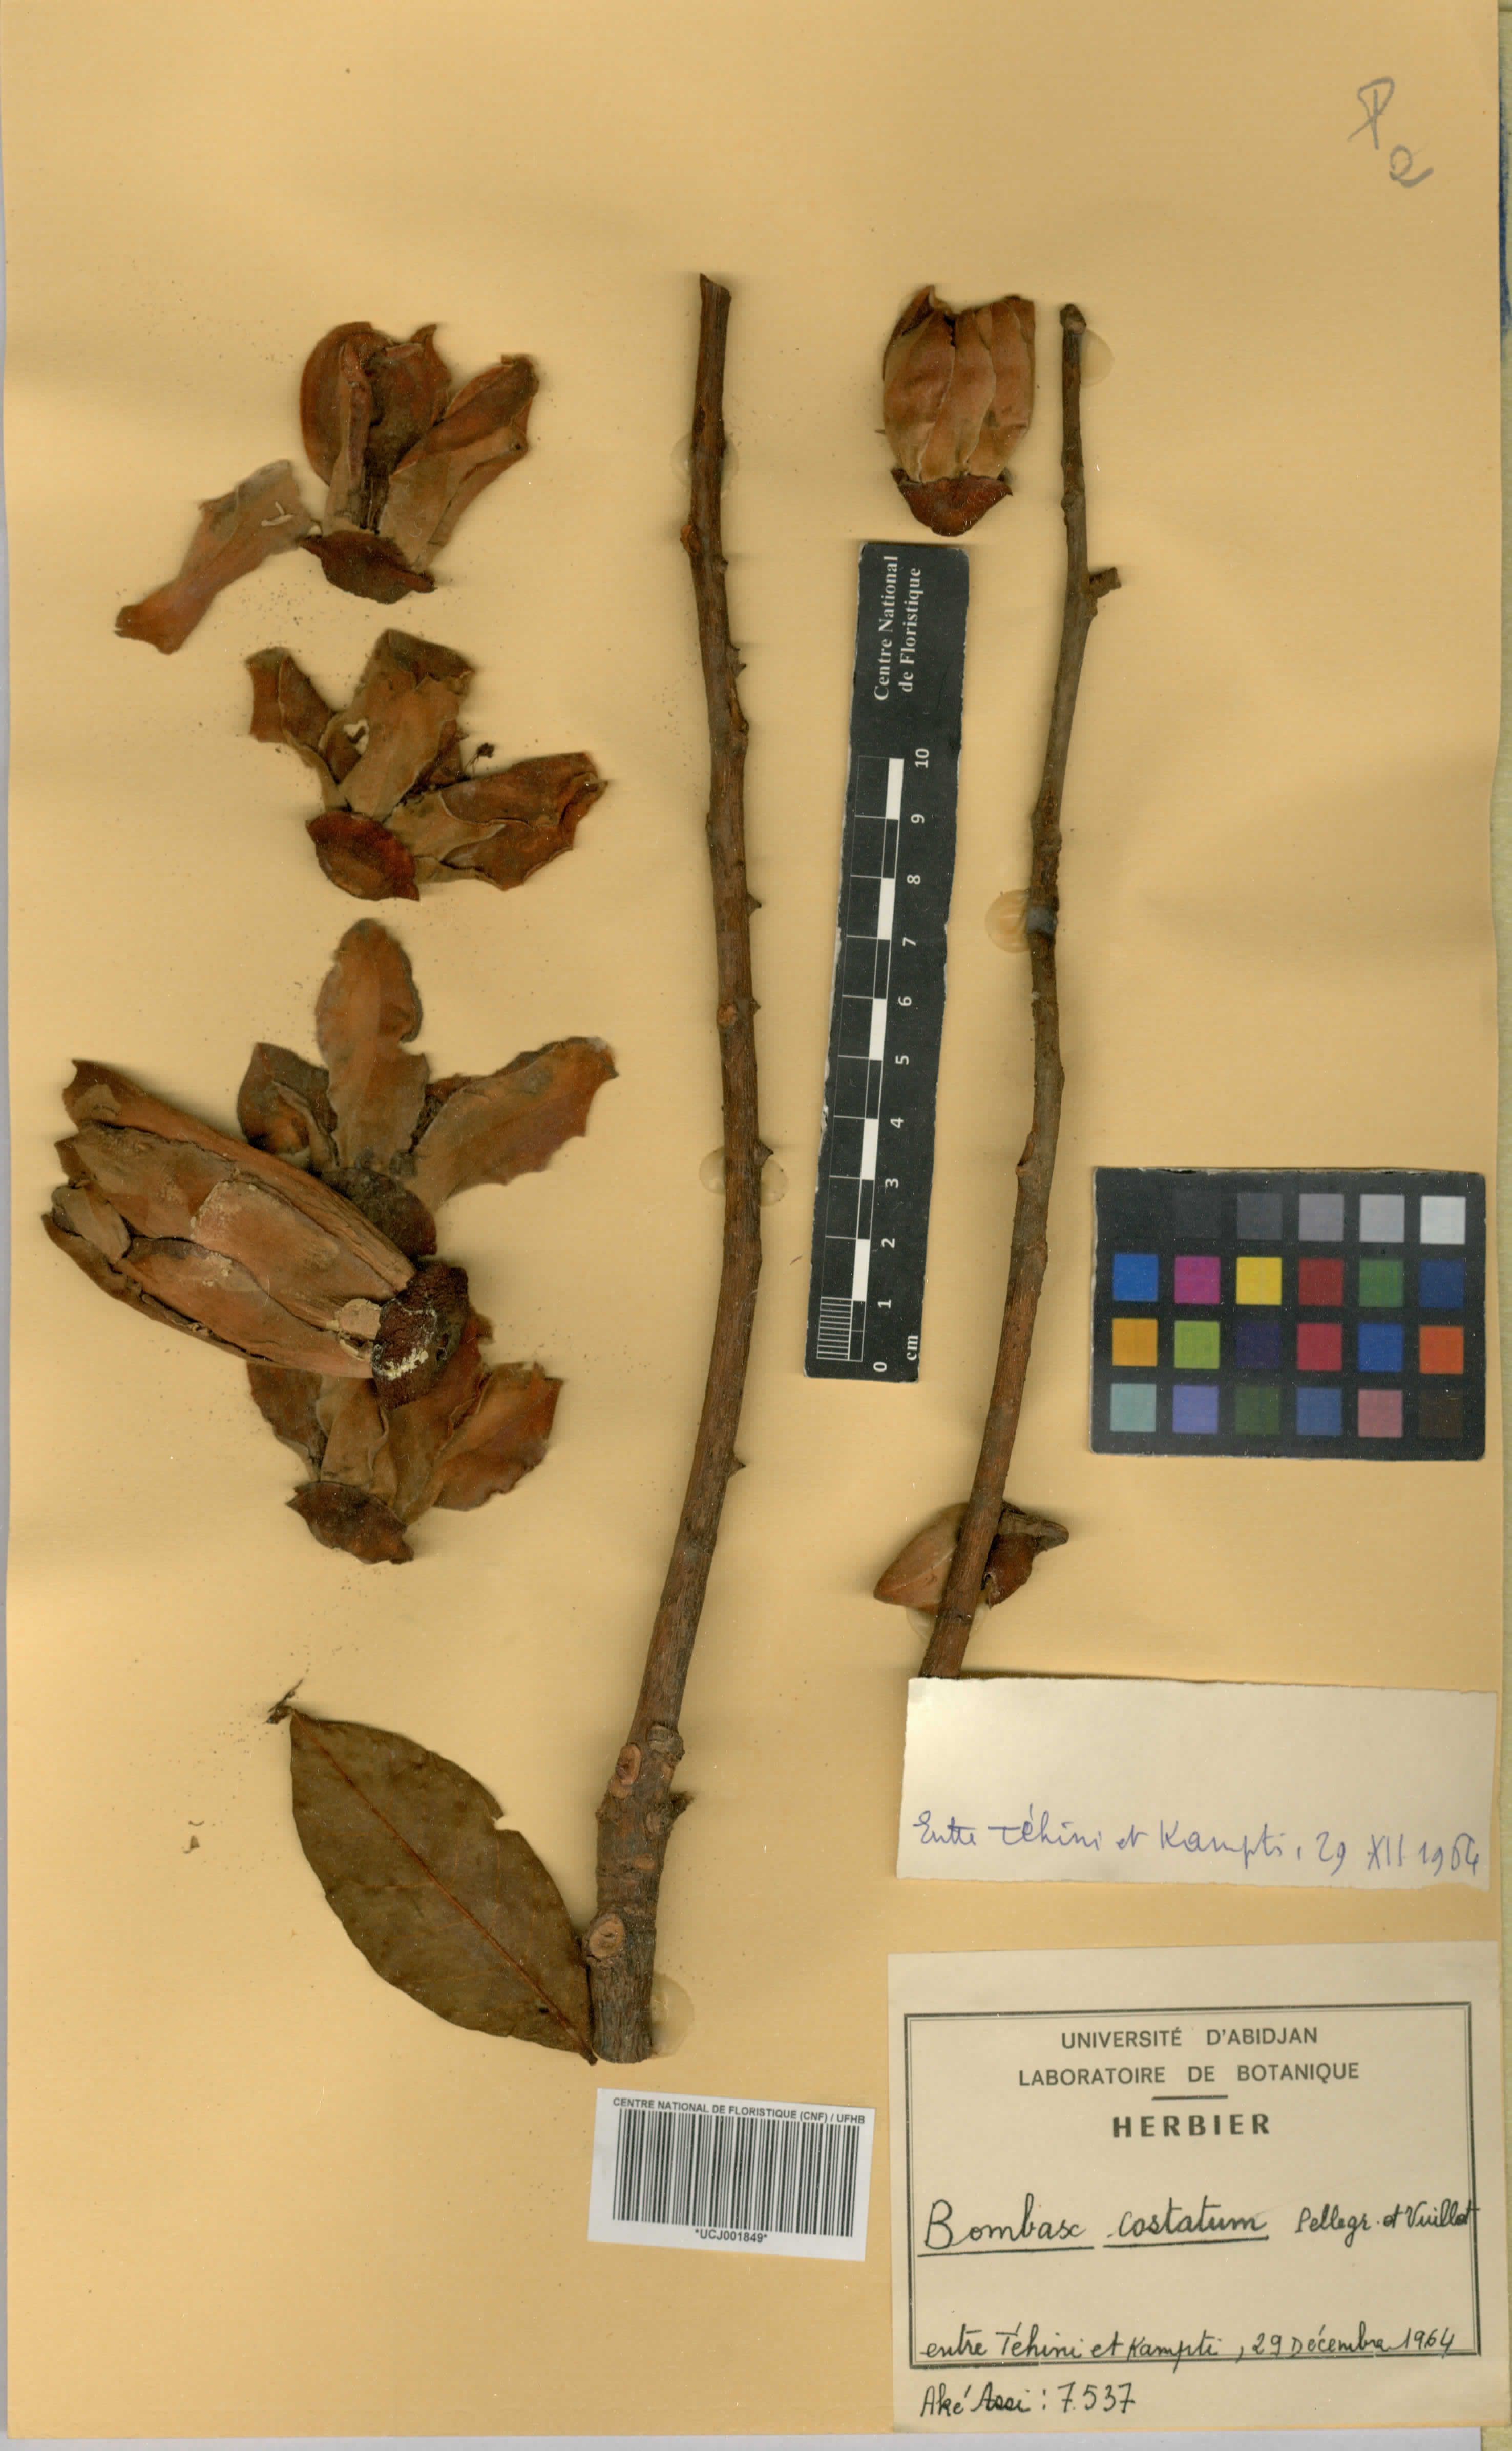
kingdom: Plantae
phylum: Tracheophyta
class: Magnoliopsida
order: Malvales
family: Malvaceae
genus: Bombax
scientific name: Bombax costatum
